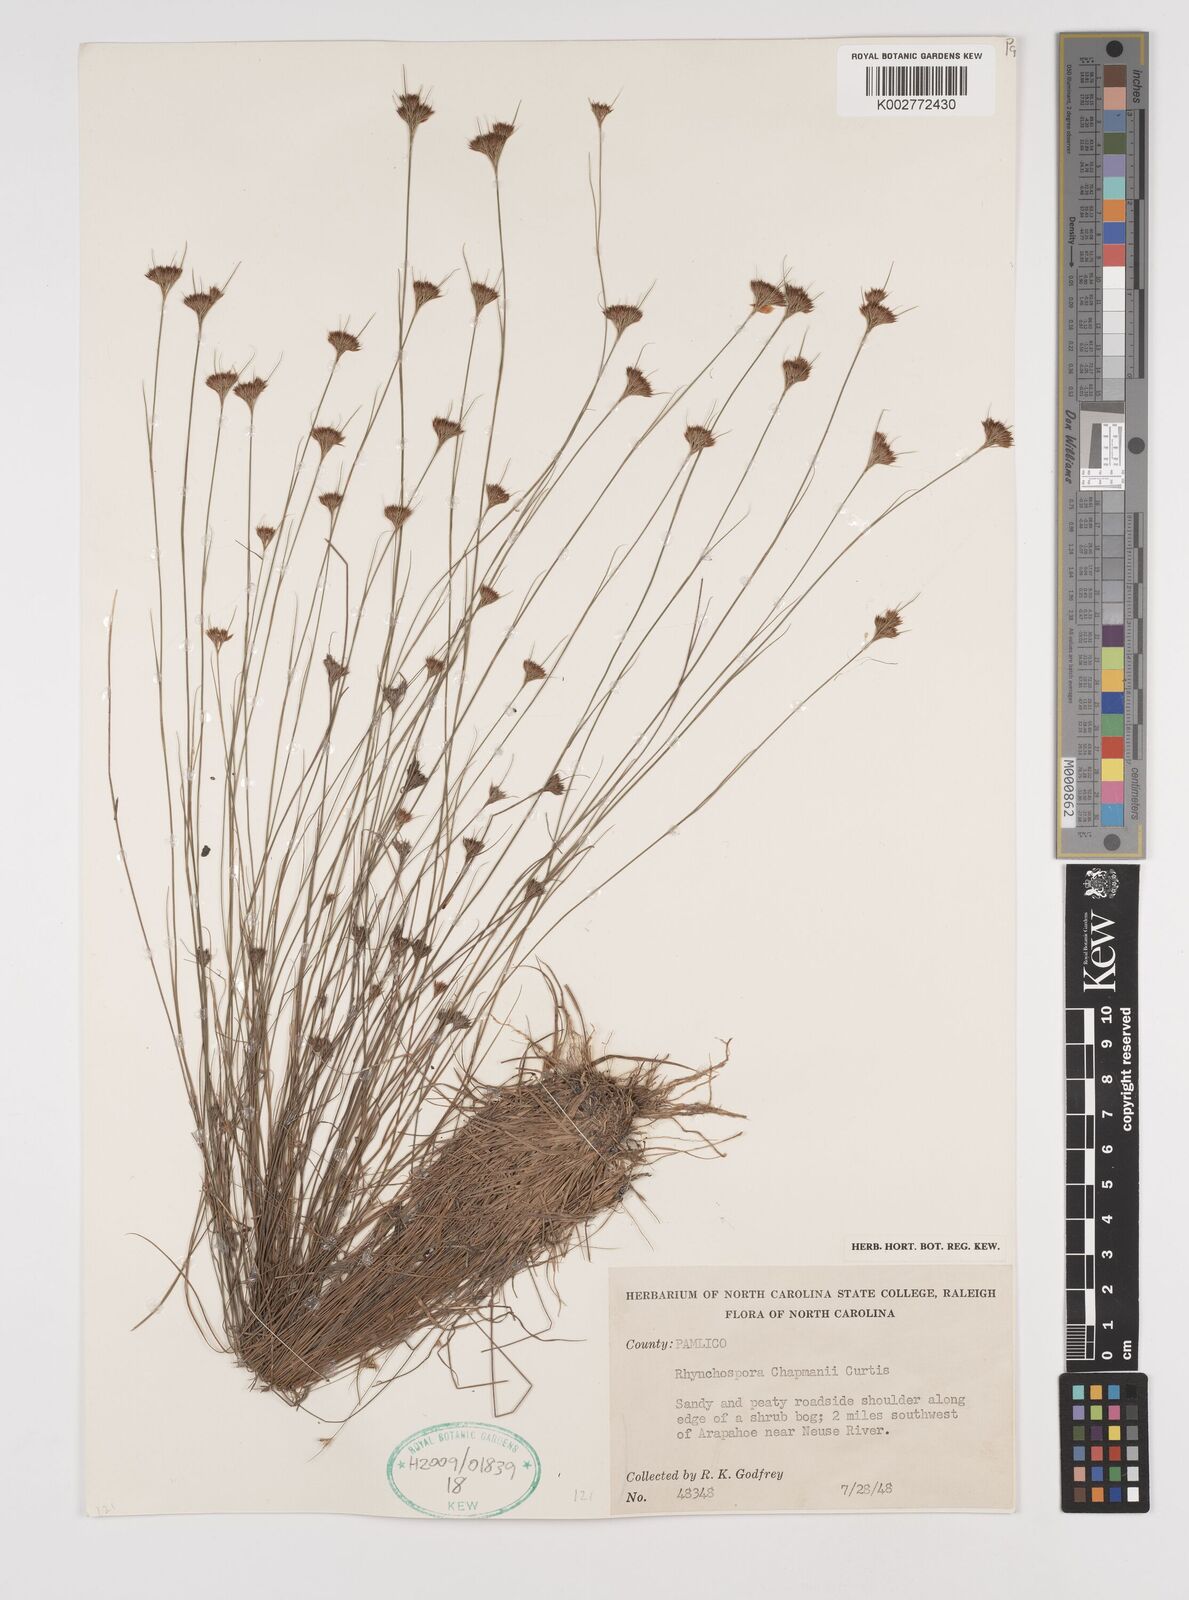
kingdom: Plantae
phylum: Tracheophyta
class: Liliopsida
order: Poales
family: Cyperaceae
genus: Rhynchospora
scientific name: Rhynchospora
